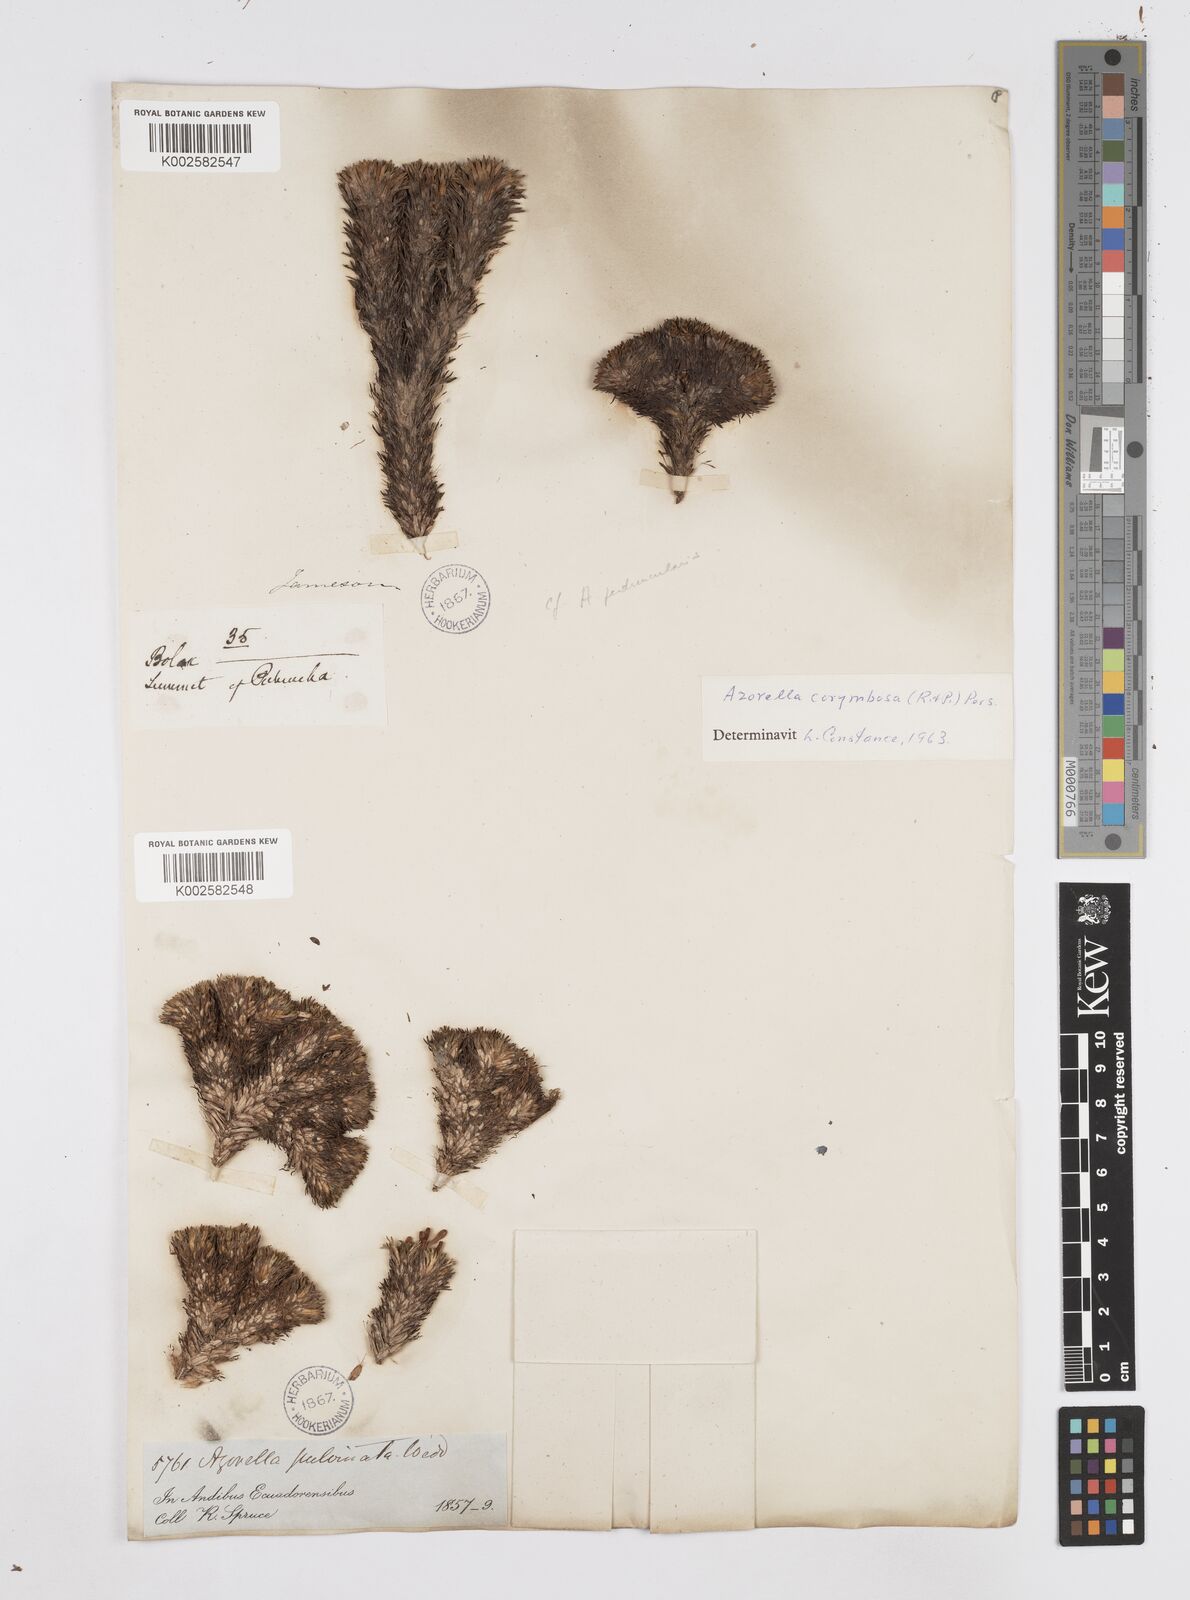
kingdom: Plantae
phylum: Tracheophyta
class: Magnoliopsida
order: Apiales
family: Apiaceae
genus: Azorella
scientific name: Azorella pulvinata
